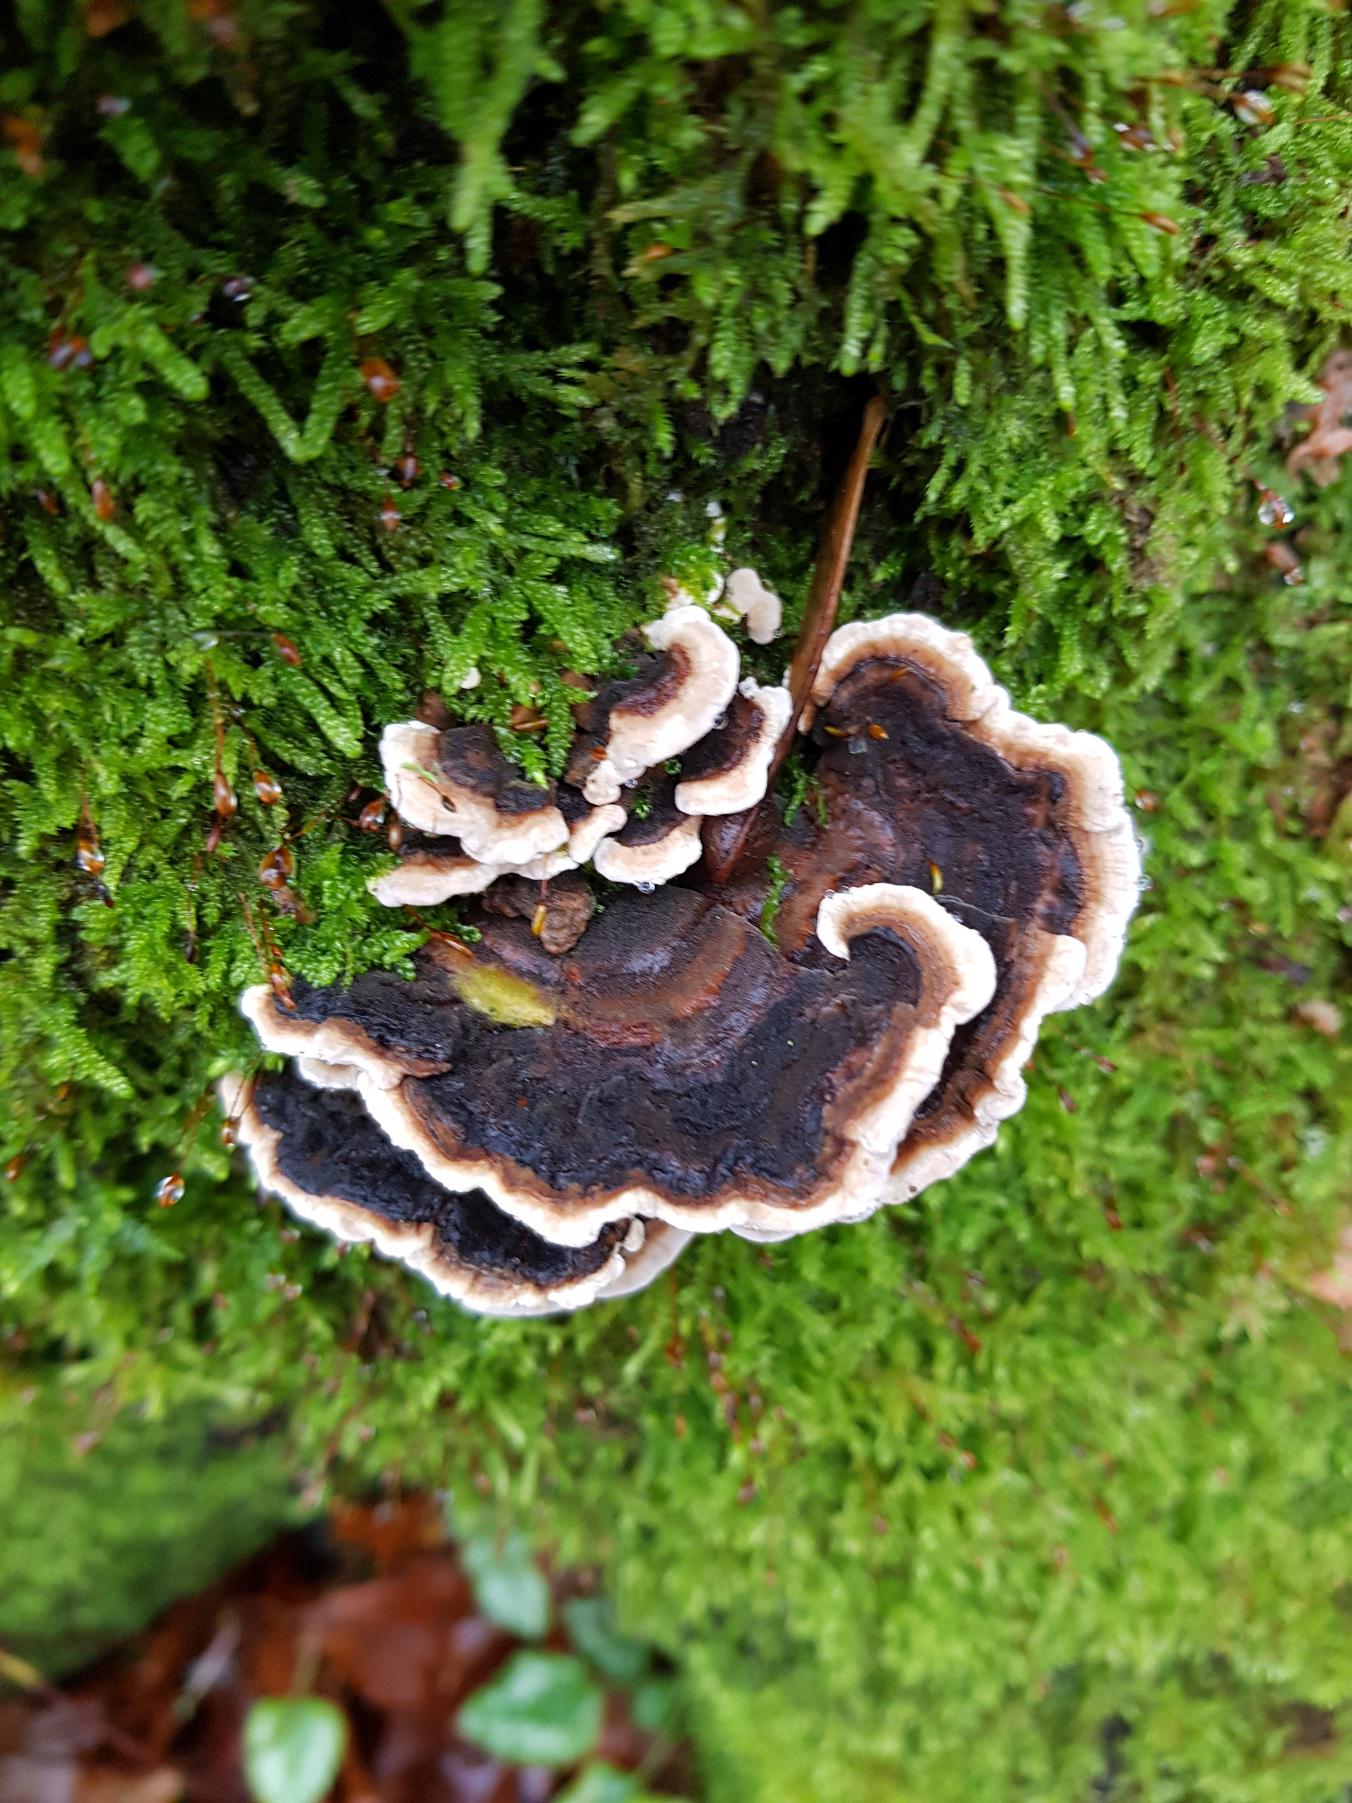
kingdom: Fungi
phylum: Basidiomycota
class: Agaricomycetes
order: Polyporales
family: Polyporaceae
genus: Trametes
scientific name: Trametes versicolor
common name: Broget læderporesvamp
